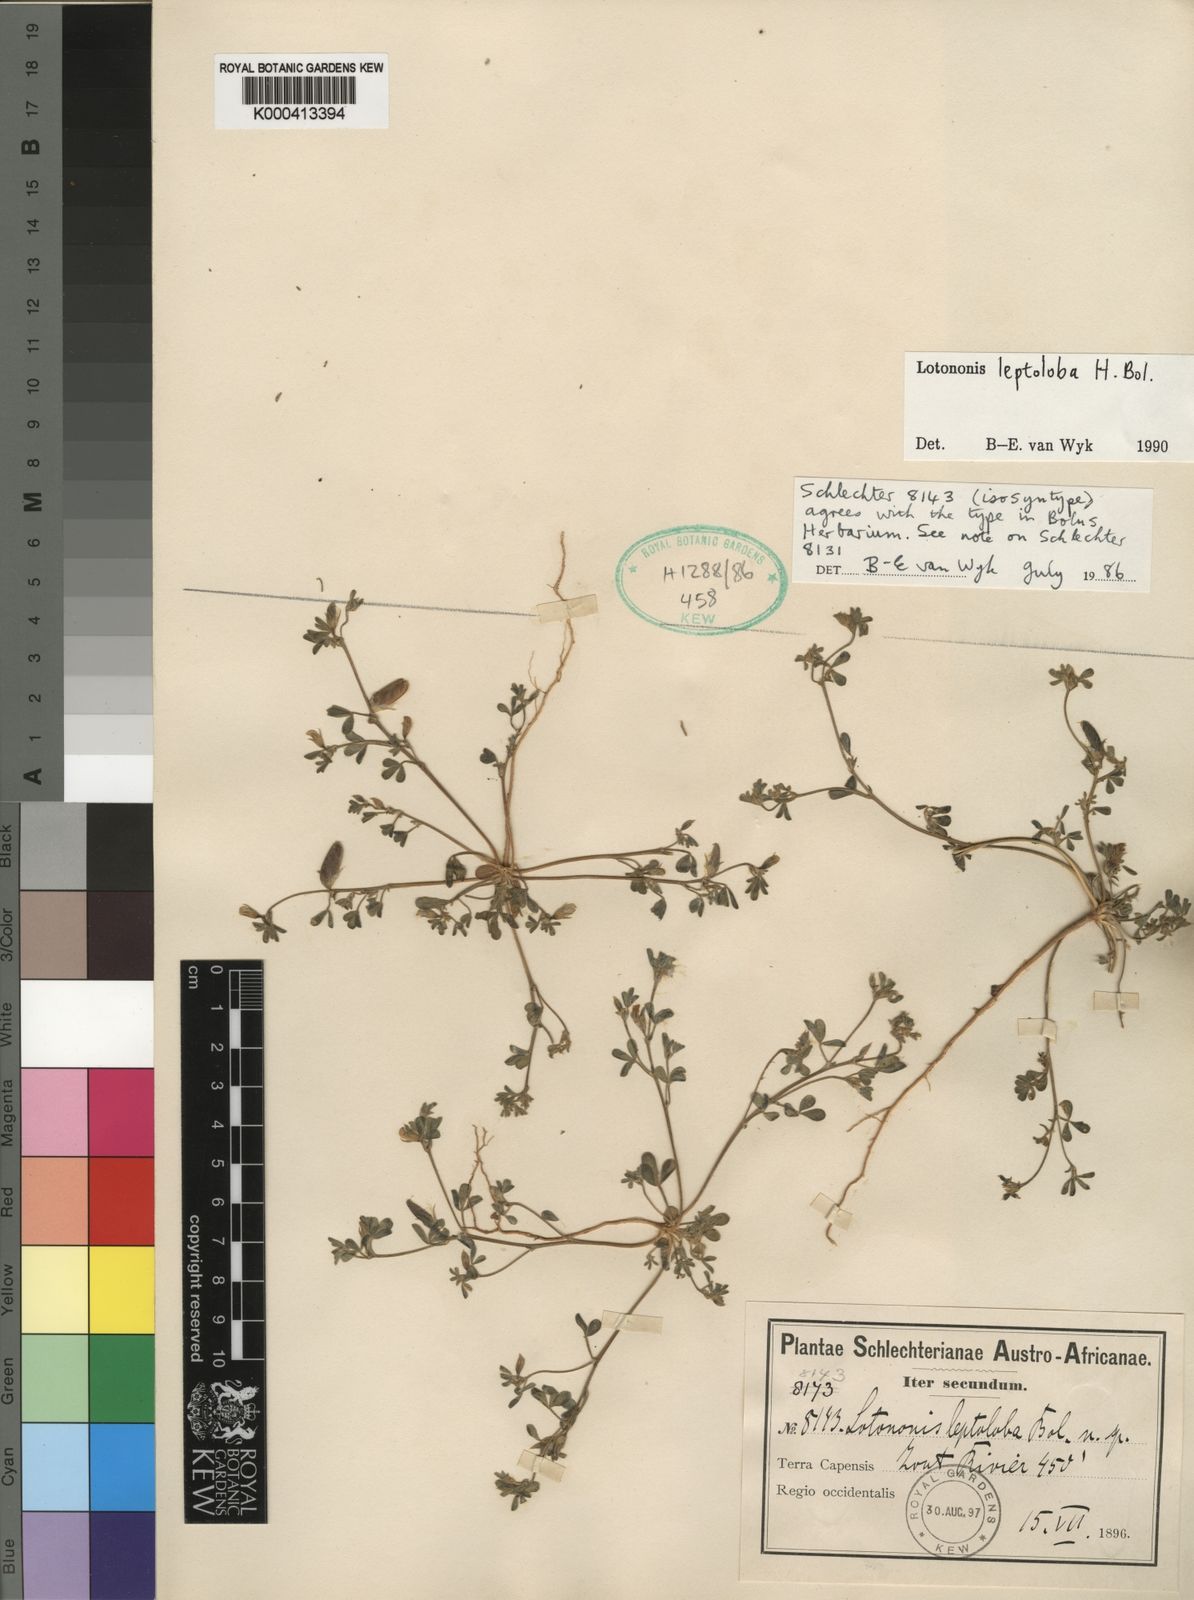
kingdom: Plantae
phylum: Tracheophyta
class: Magnoliopsida
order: Fabales
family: Fabaceae
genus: Lotononis
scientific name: Lotononis
